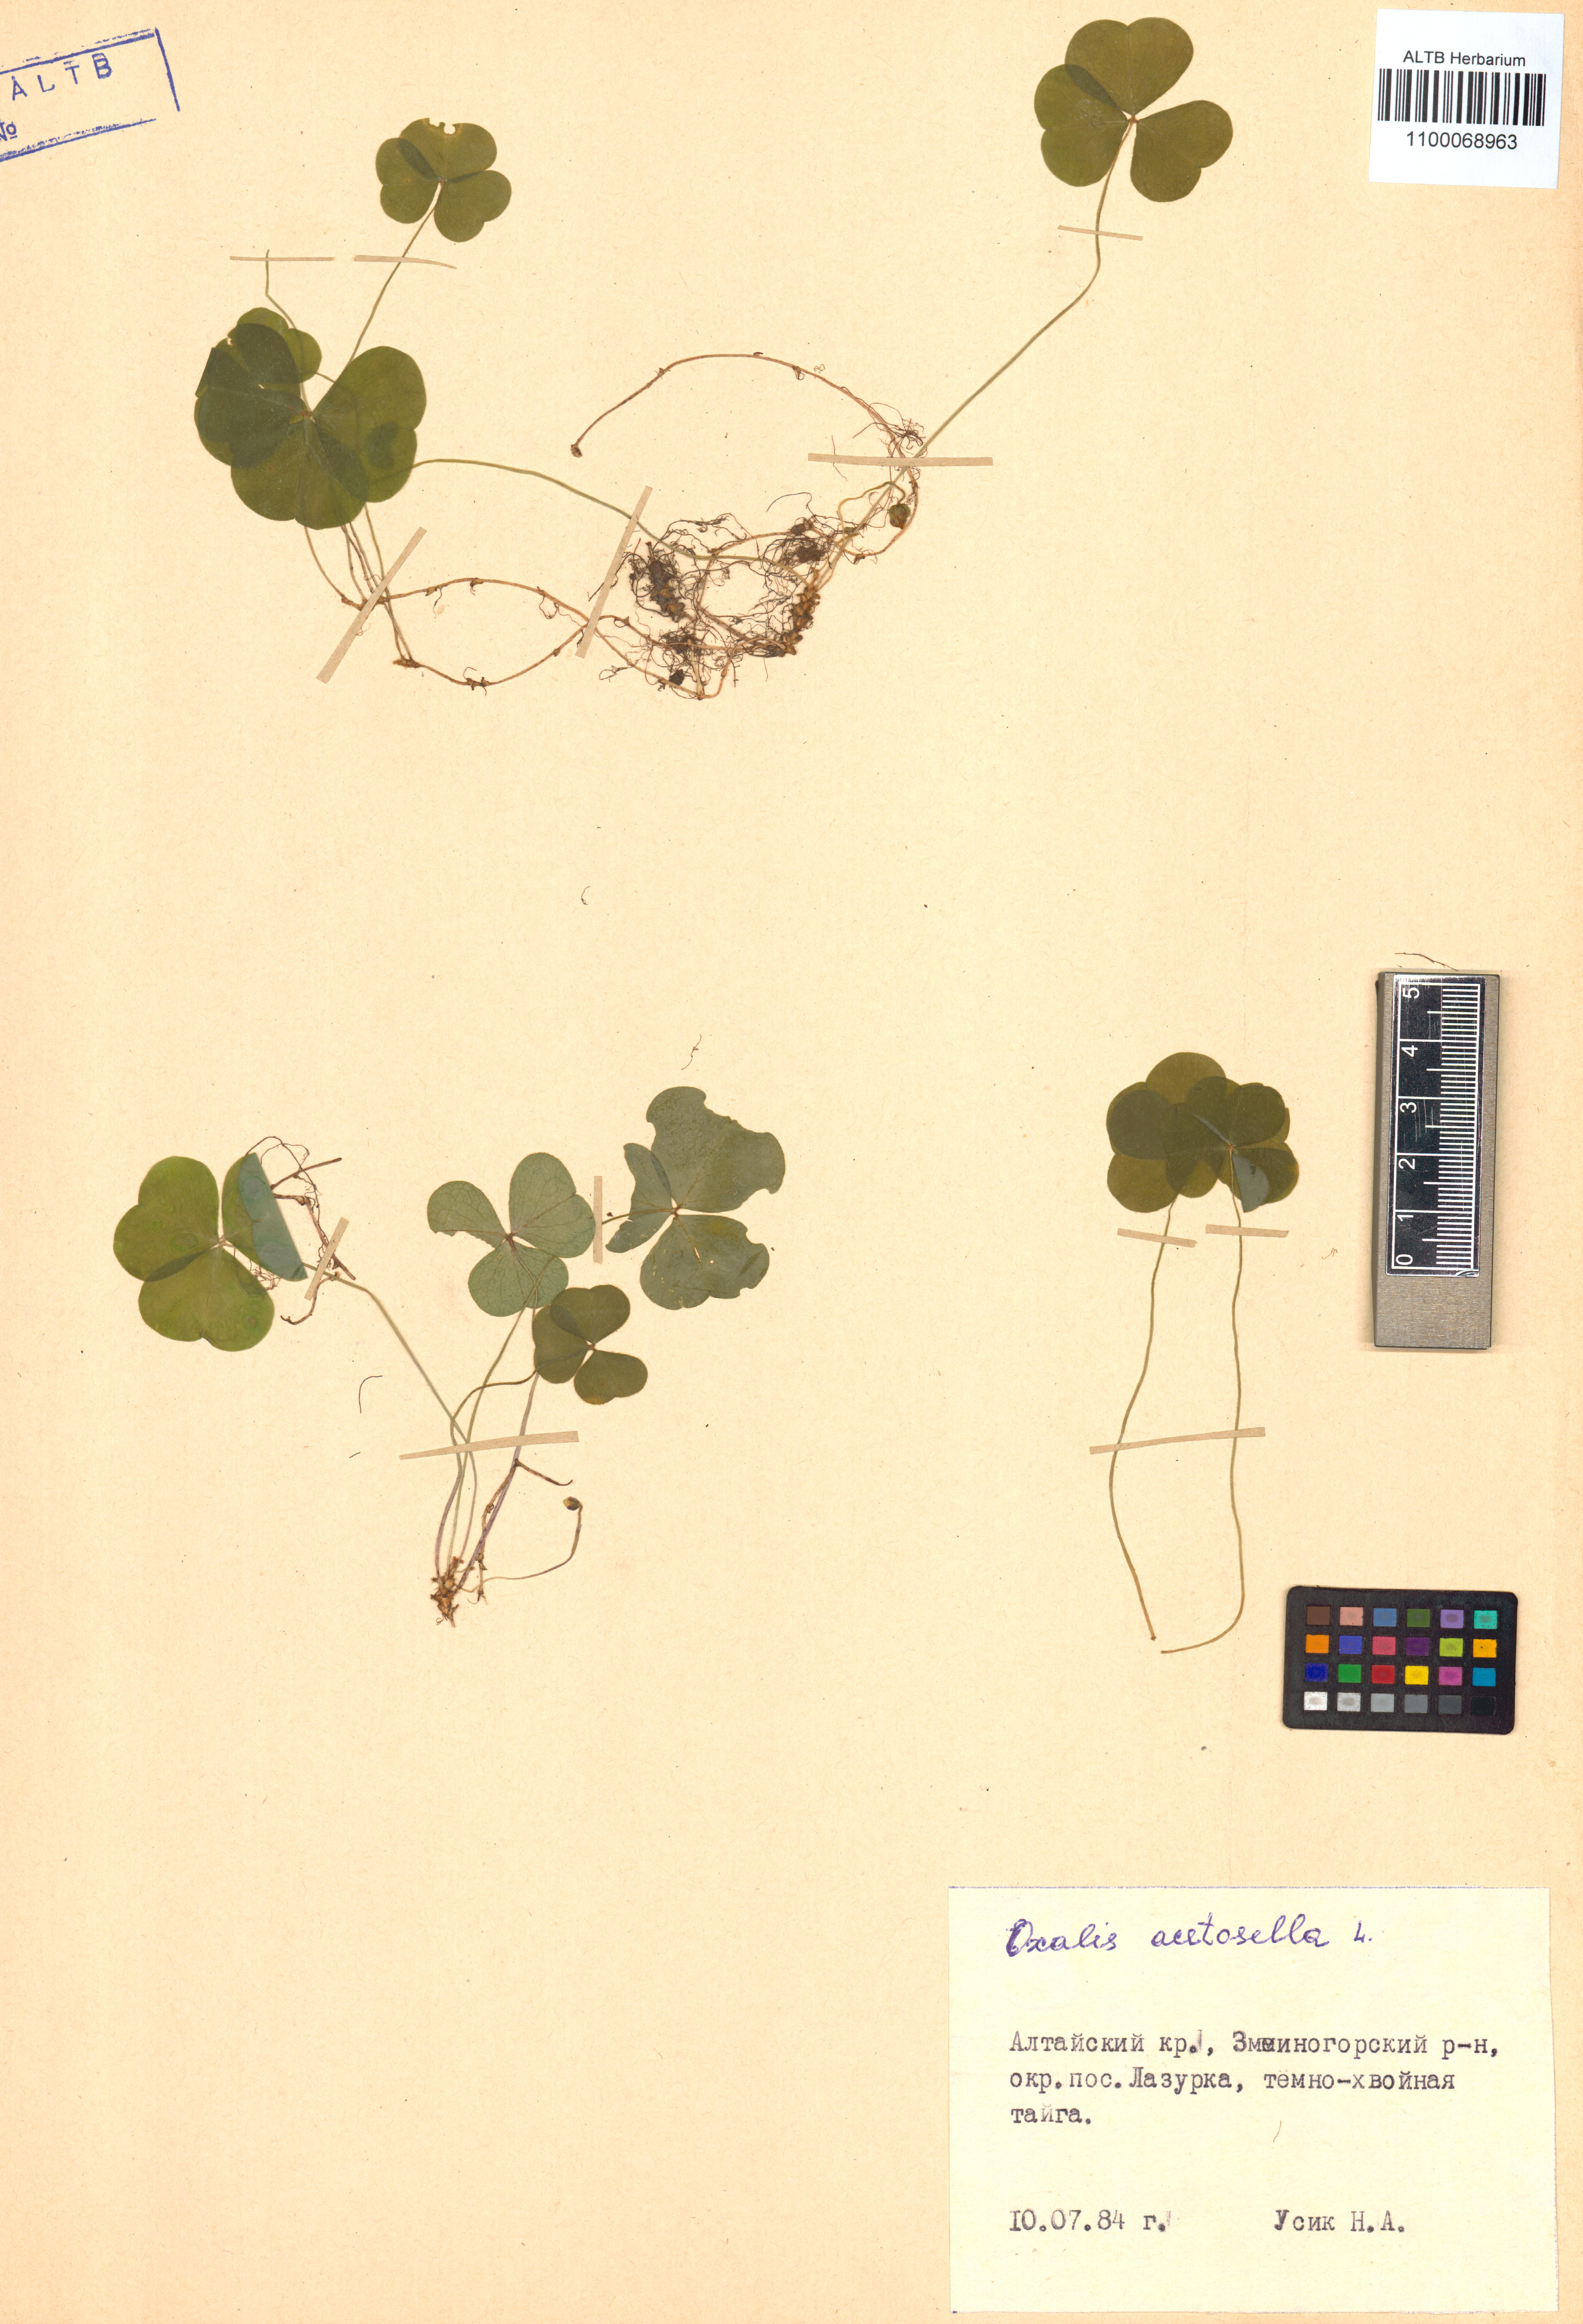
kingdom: Plantae
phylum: Tracheophyta
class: Magnoliopsida
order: Oxalidales
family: Oxalidaceae
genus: Oxalis
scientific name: Oxalis acetosella
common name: Wood-sorrel
